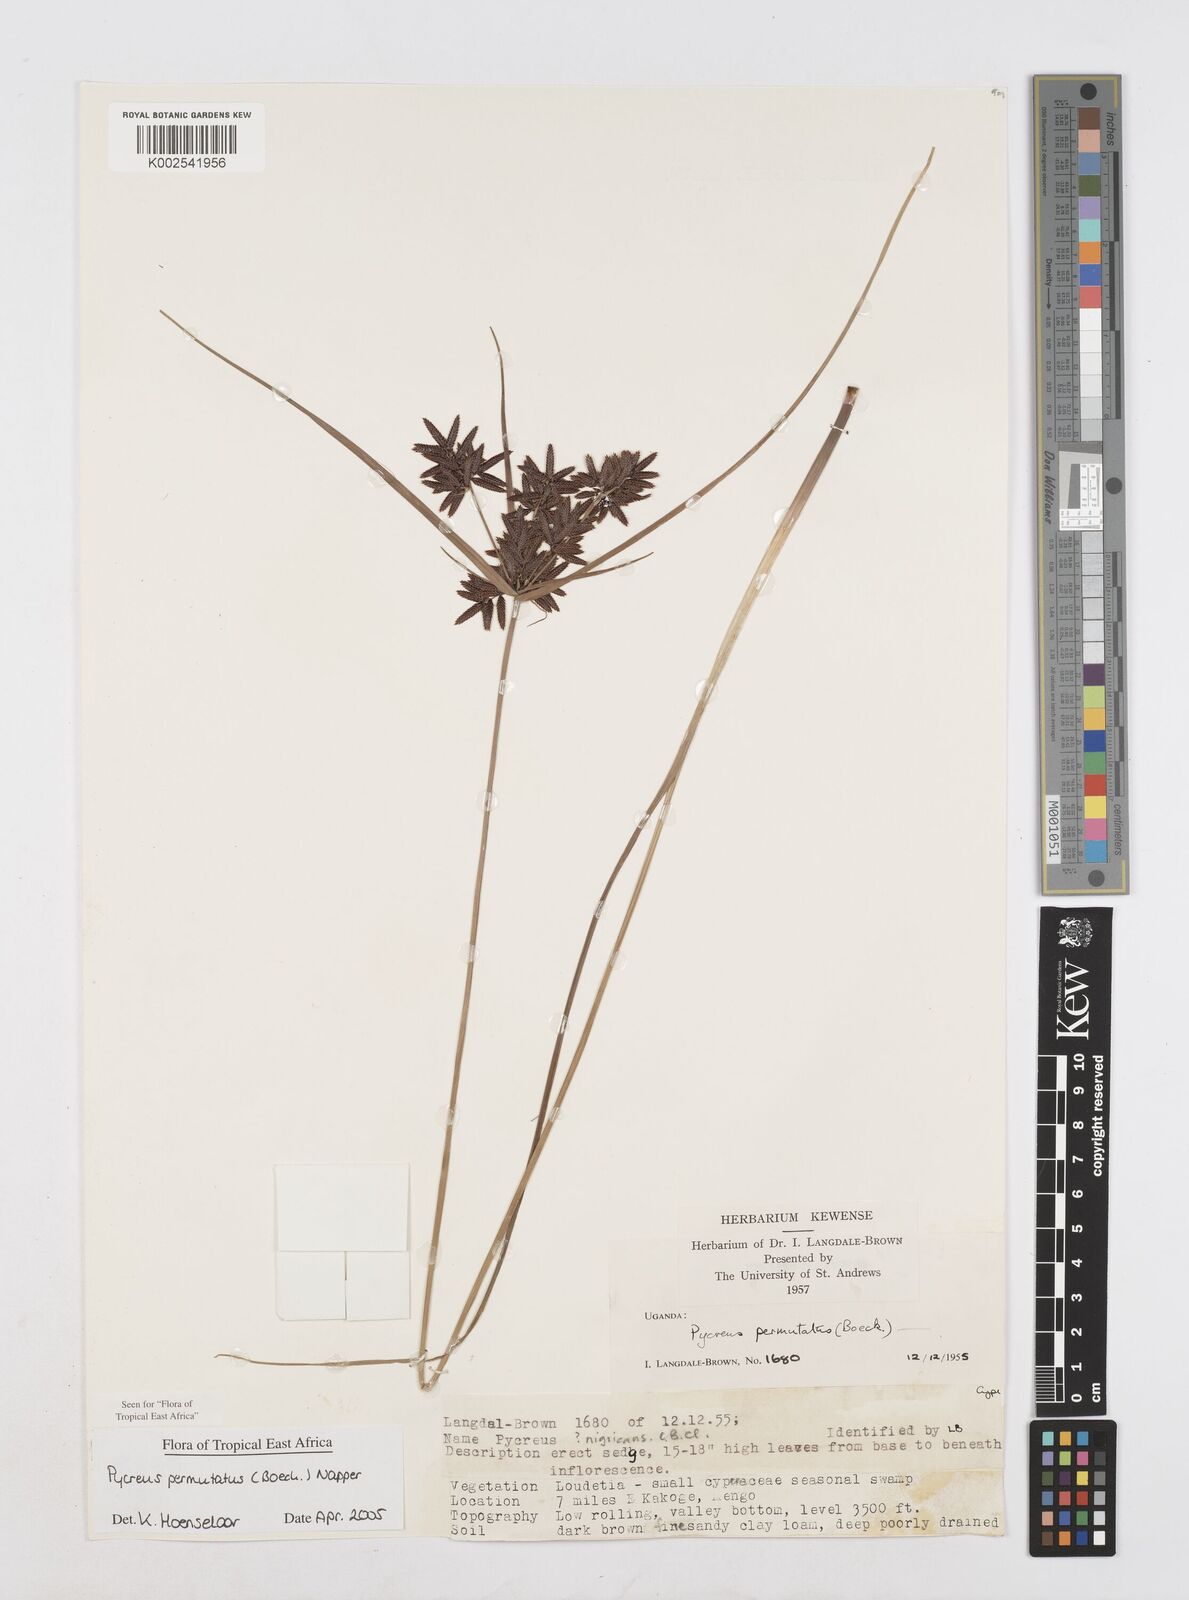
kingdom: Plantae
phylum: Tracheophyta
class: Liliopsida
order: Poales
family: Cyperaceae
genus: Cyperus
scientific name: Cyperus nigricans
